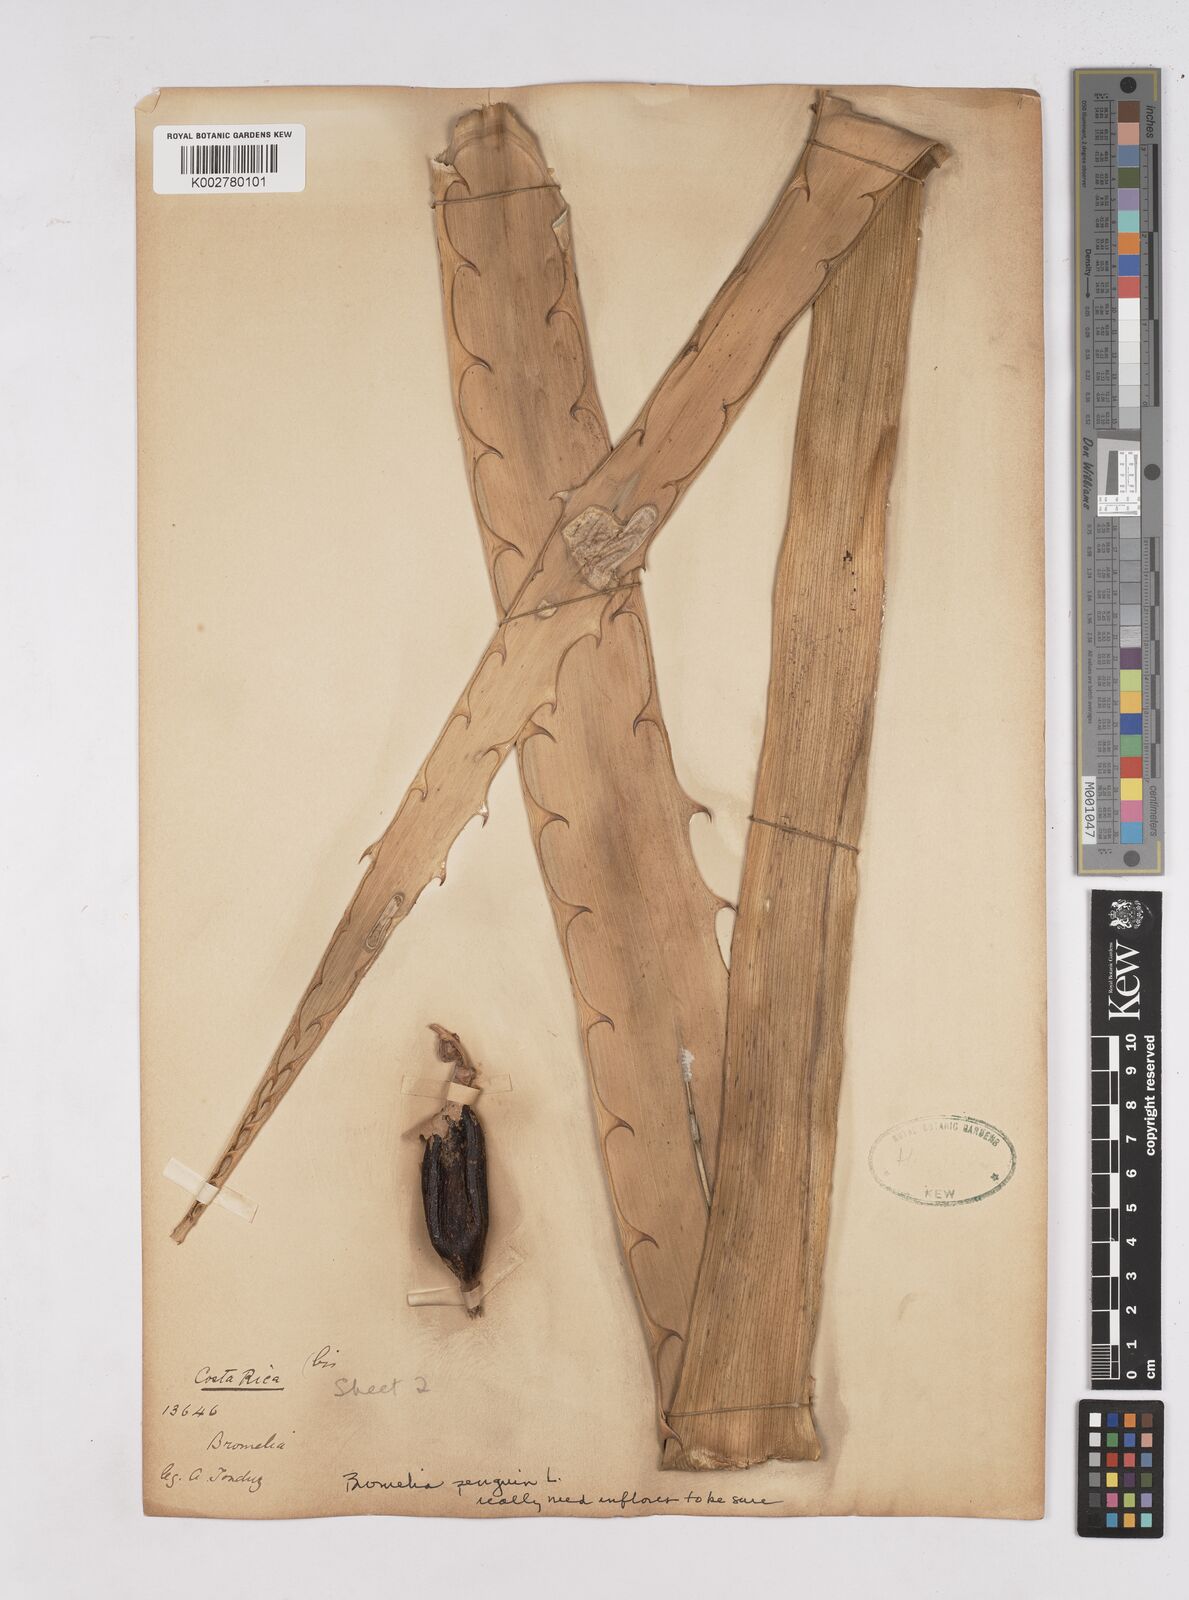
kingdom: Plantae
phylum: Tracheophyta
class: Liliopsida
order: Poales
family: Bromeliaceae
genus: Bromelia
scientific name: Bromelia pinguin
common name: Pinguin
